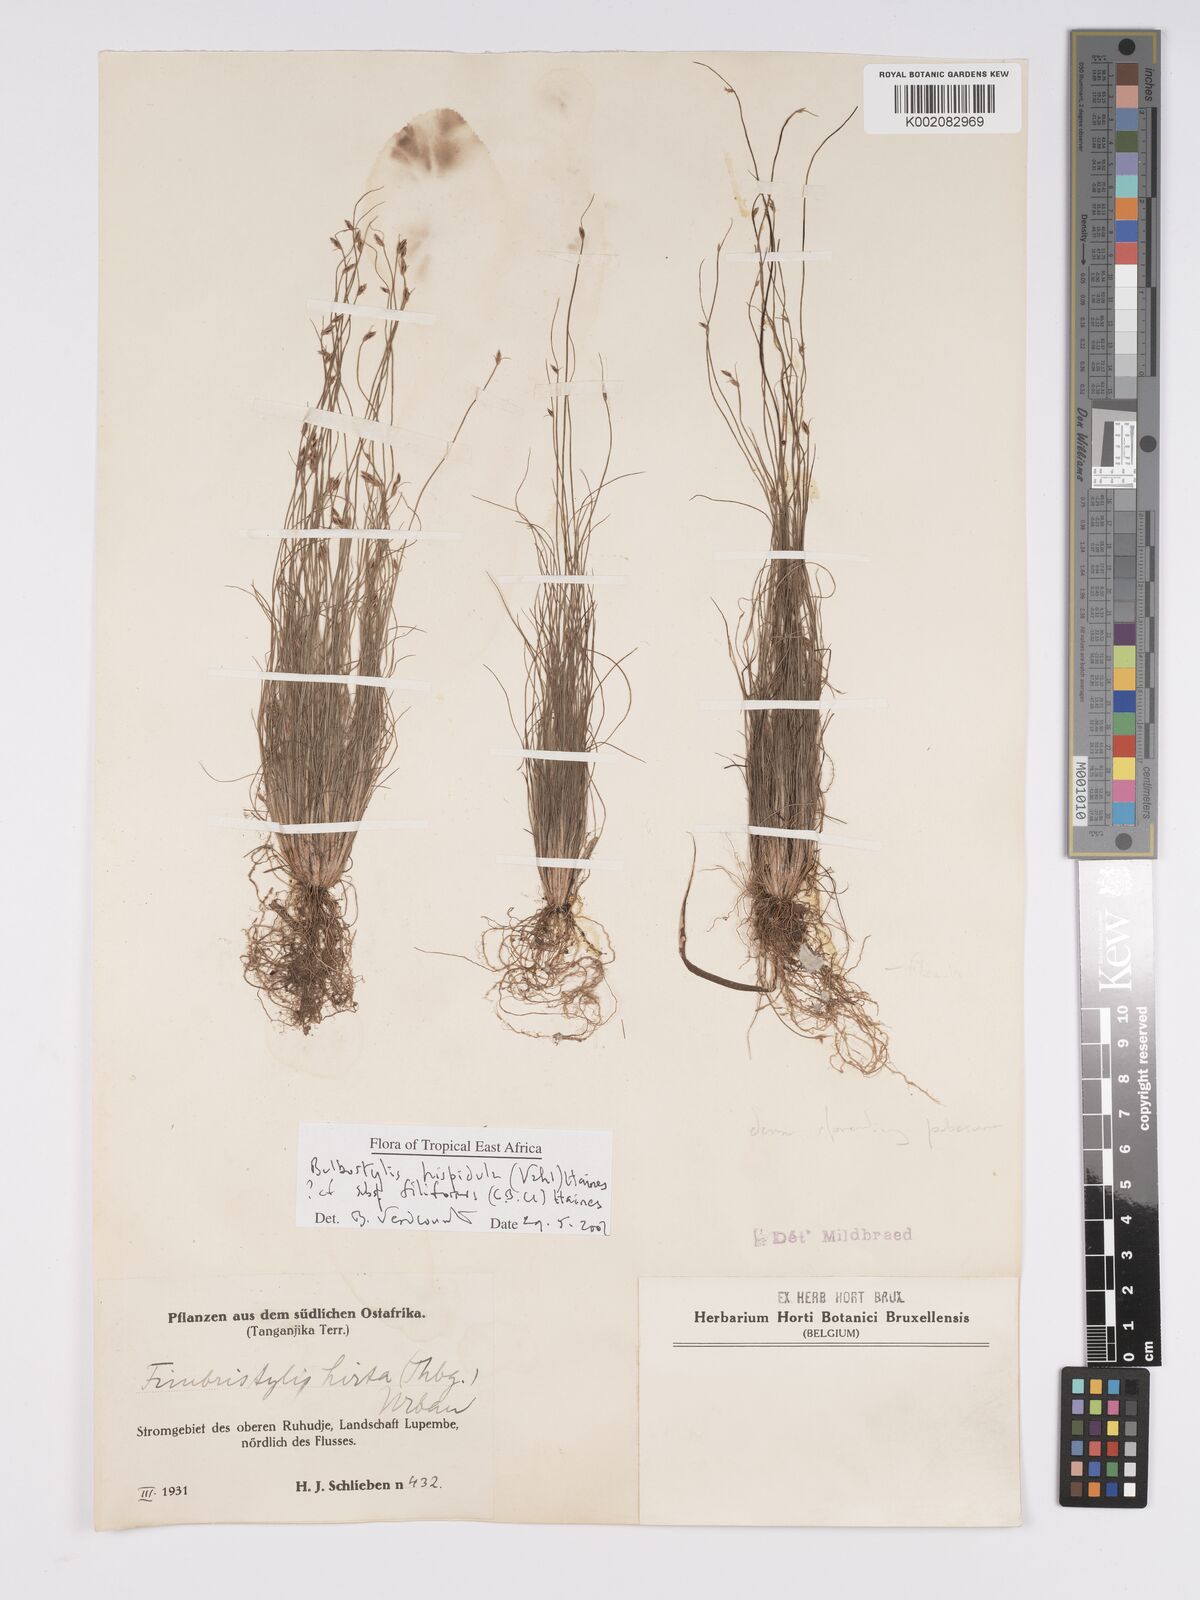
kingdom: Plantae
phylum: Tracheophyta
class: Liliopsida
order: Poales
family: Cyperaceae
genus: Bulbostylis
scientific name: Bulbostylis hispidula
